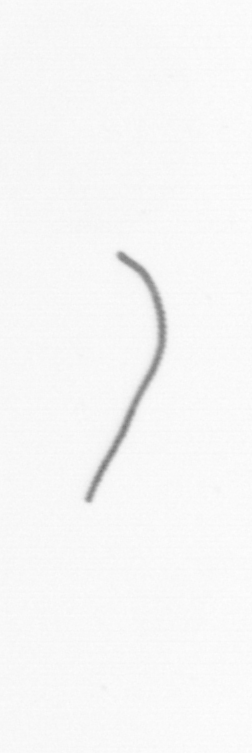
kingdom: Chromista
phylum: Ochrophyta
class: Bacillariophyceae
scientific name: Bacillariophyceae
